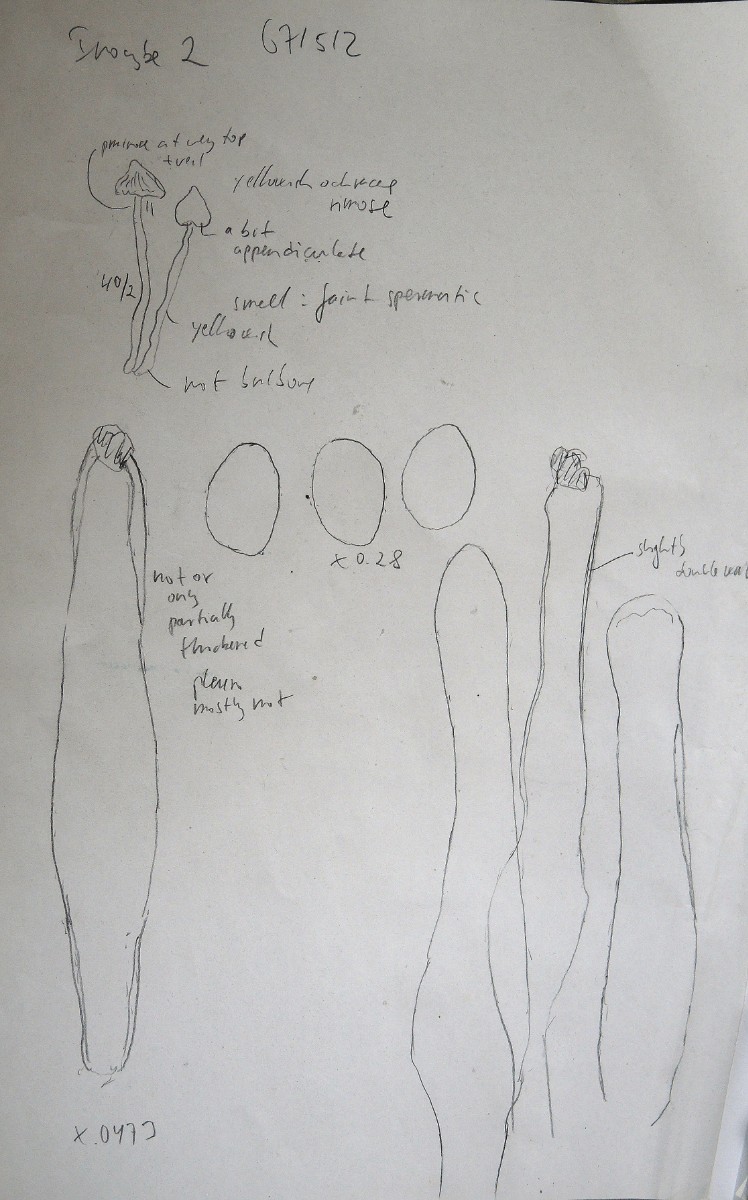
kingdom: Fungi
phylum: Basidiomycota
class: Agaricomycetes
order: Agaricales
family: Inocybaceae
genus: Inocybe
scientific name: Inocybe
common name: trævlhat
